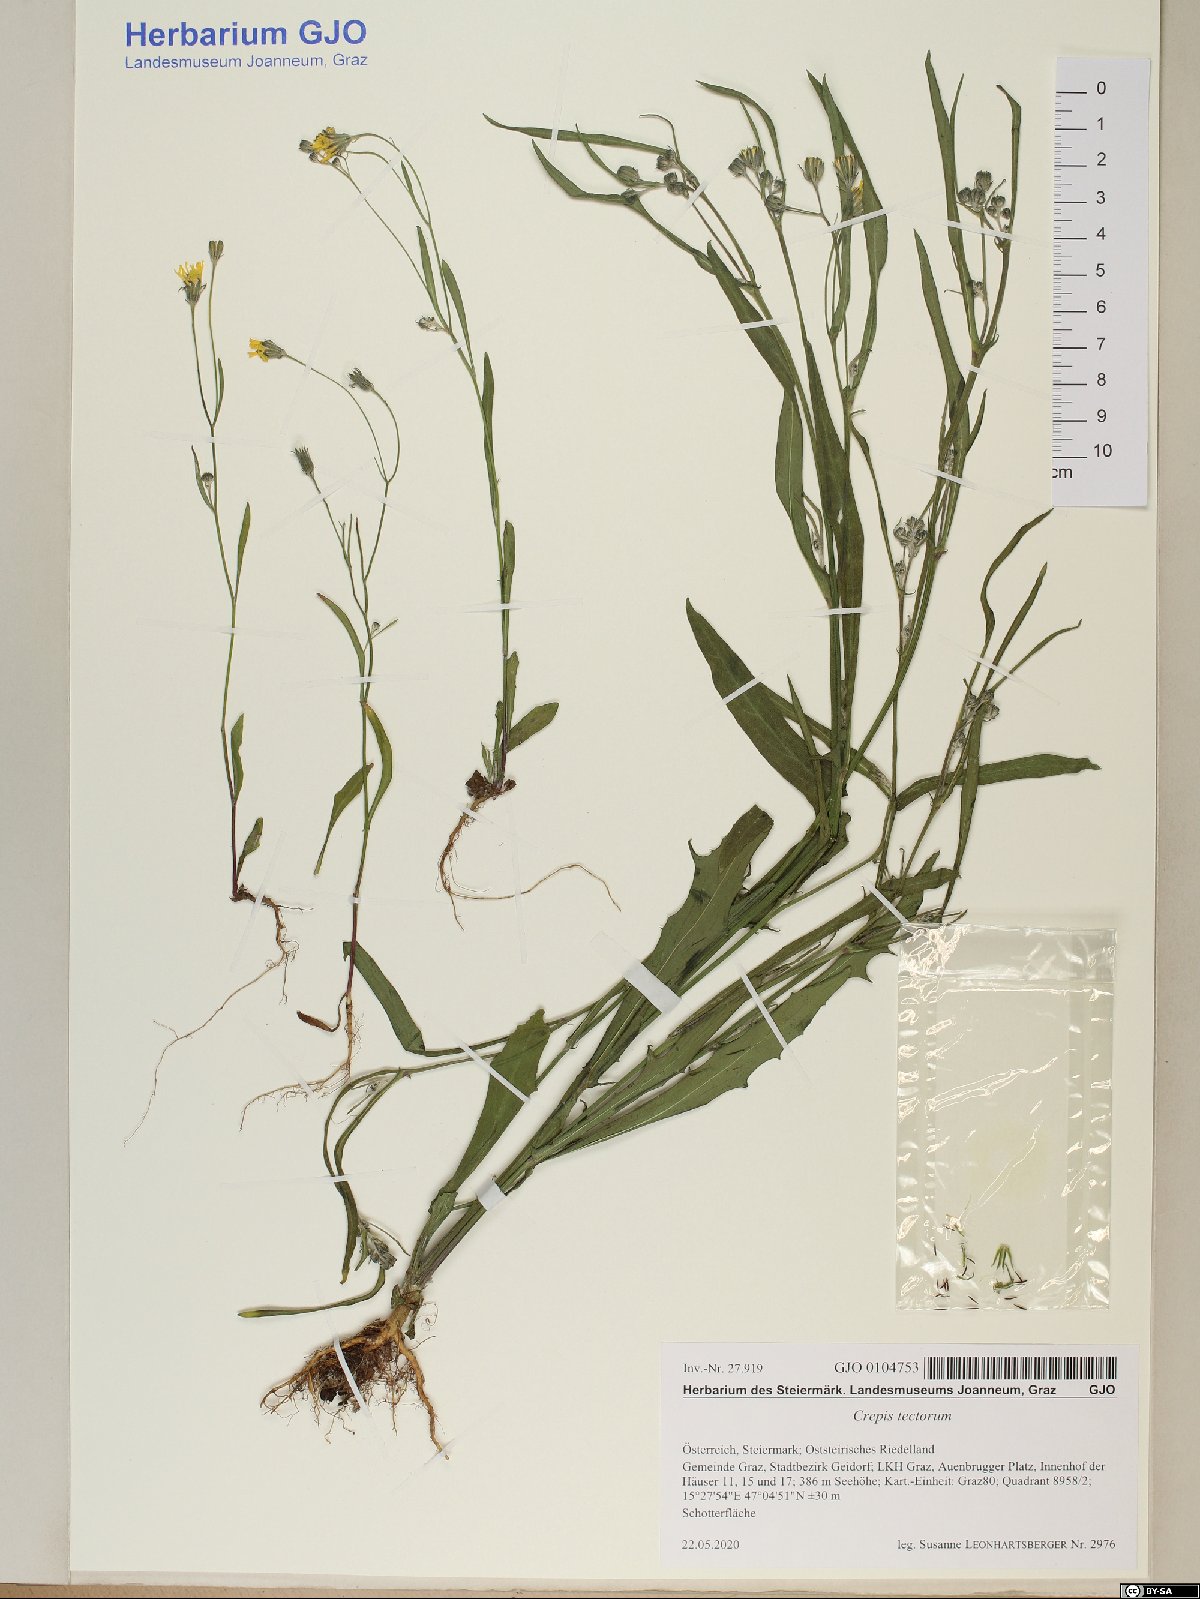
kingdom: Plantae
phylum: Tracheophyta
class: Magnoliopsida
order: Asterales
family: Asteraceae
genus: Crepis
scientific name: Crepis tectorum
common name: Narrow-leaved hawk's-beard
